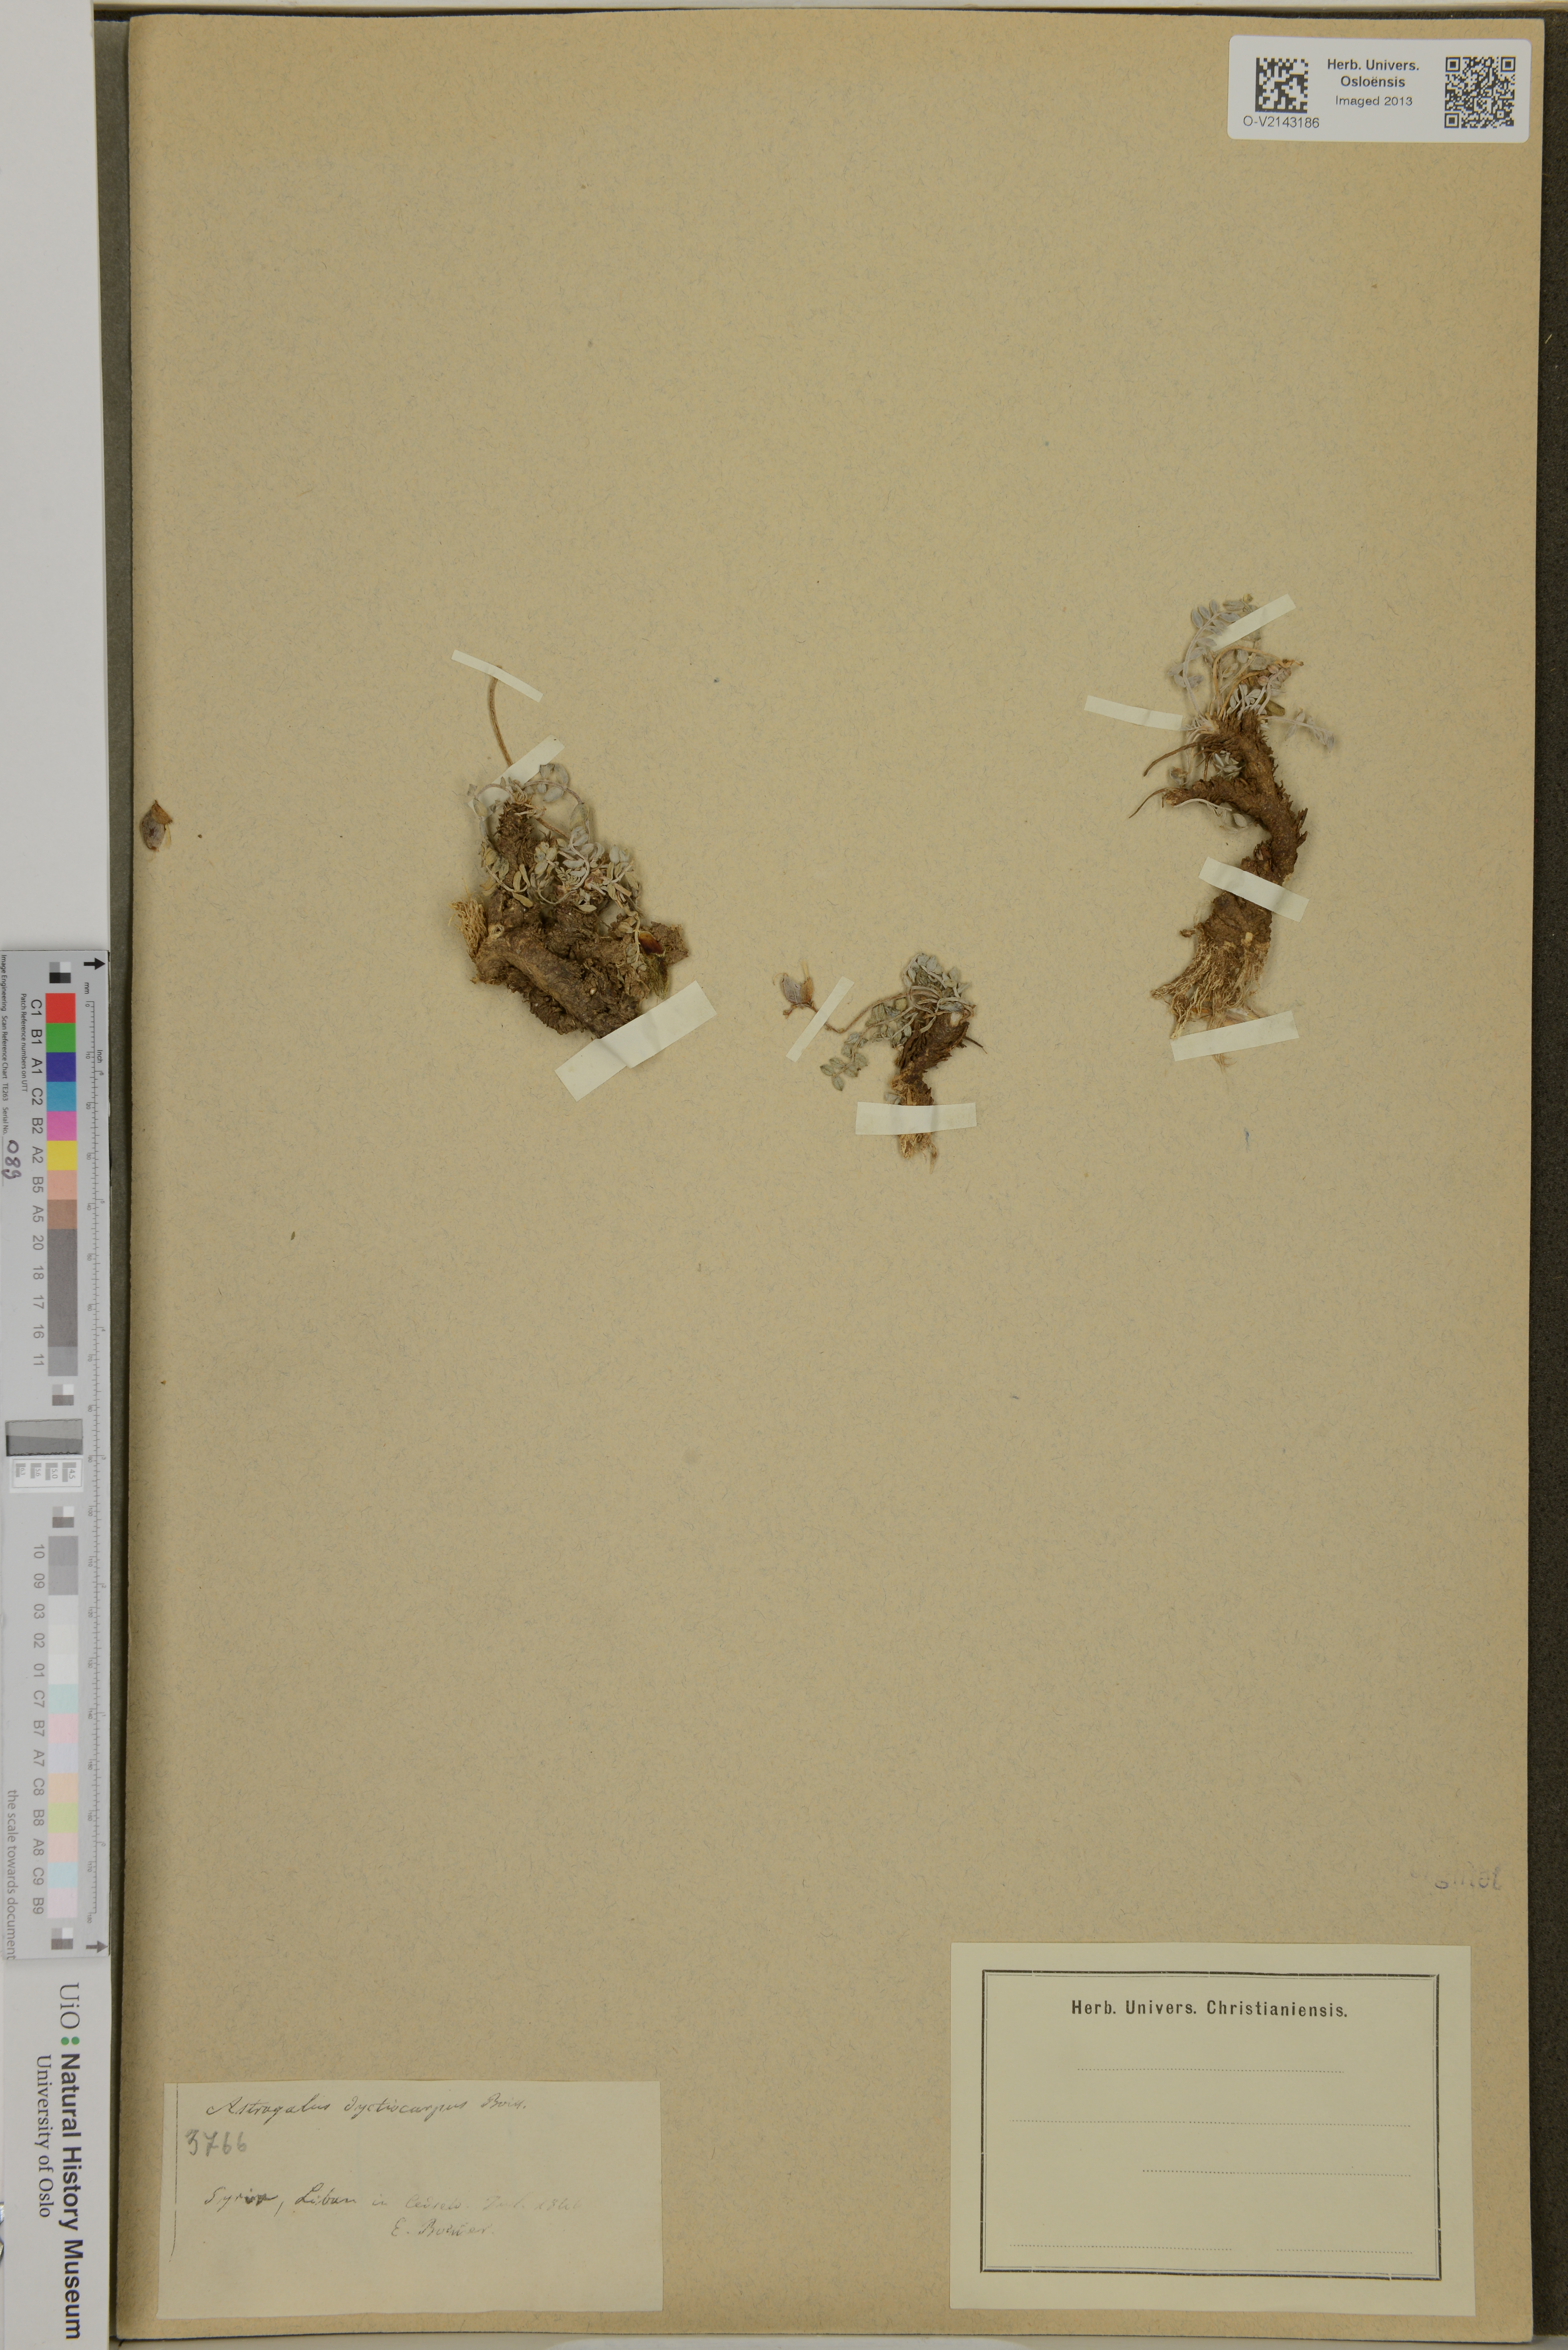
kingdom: Plantae
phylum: Tracheophyta
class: Magnoliopsida
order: Fabales
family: Fabaceae
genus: Astragalus
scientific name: Astragalus angulosus
